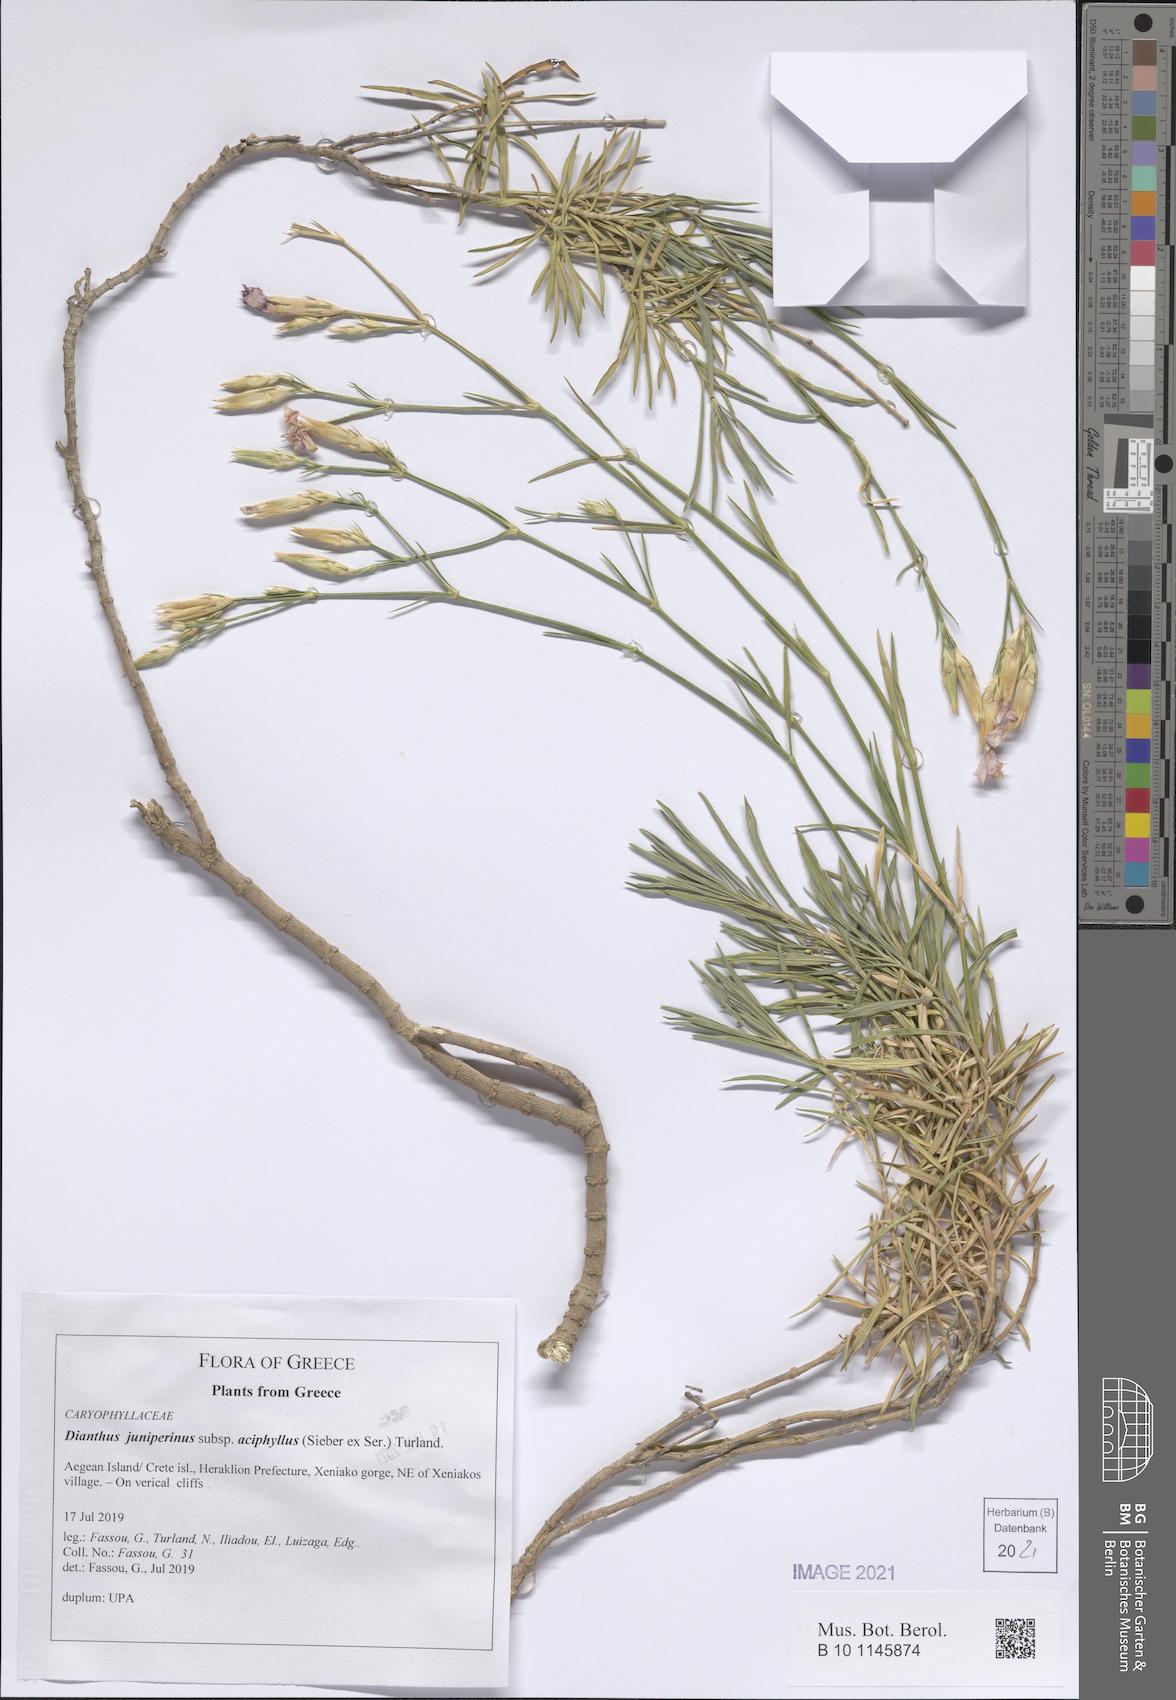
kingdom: Plantae
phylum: Tracheophyta
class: Magnoliopsida
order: Caryophyllales
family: Caryophyllaceae
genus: Dianthus
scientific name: Dianthus juniperinus
